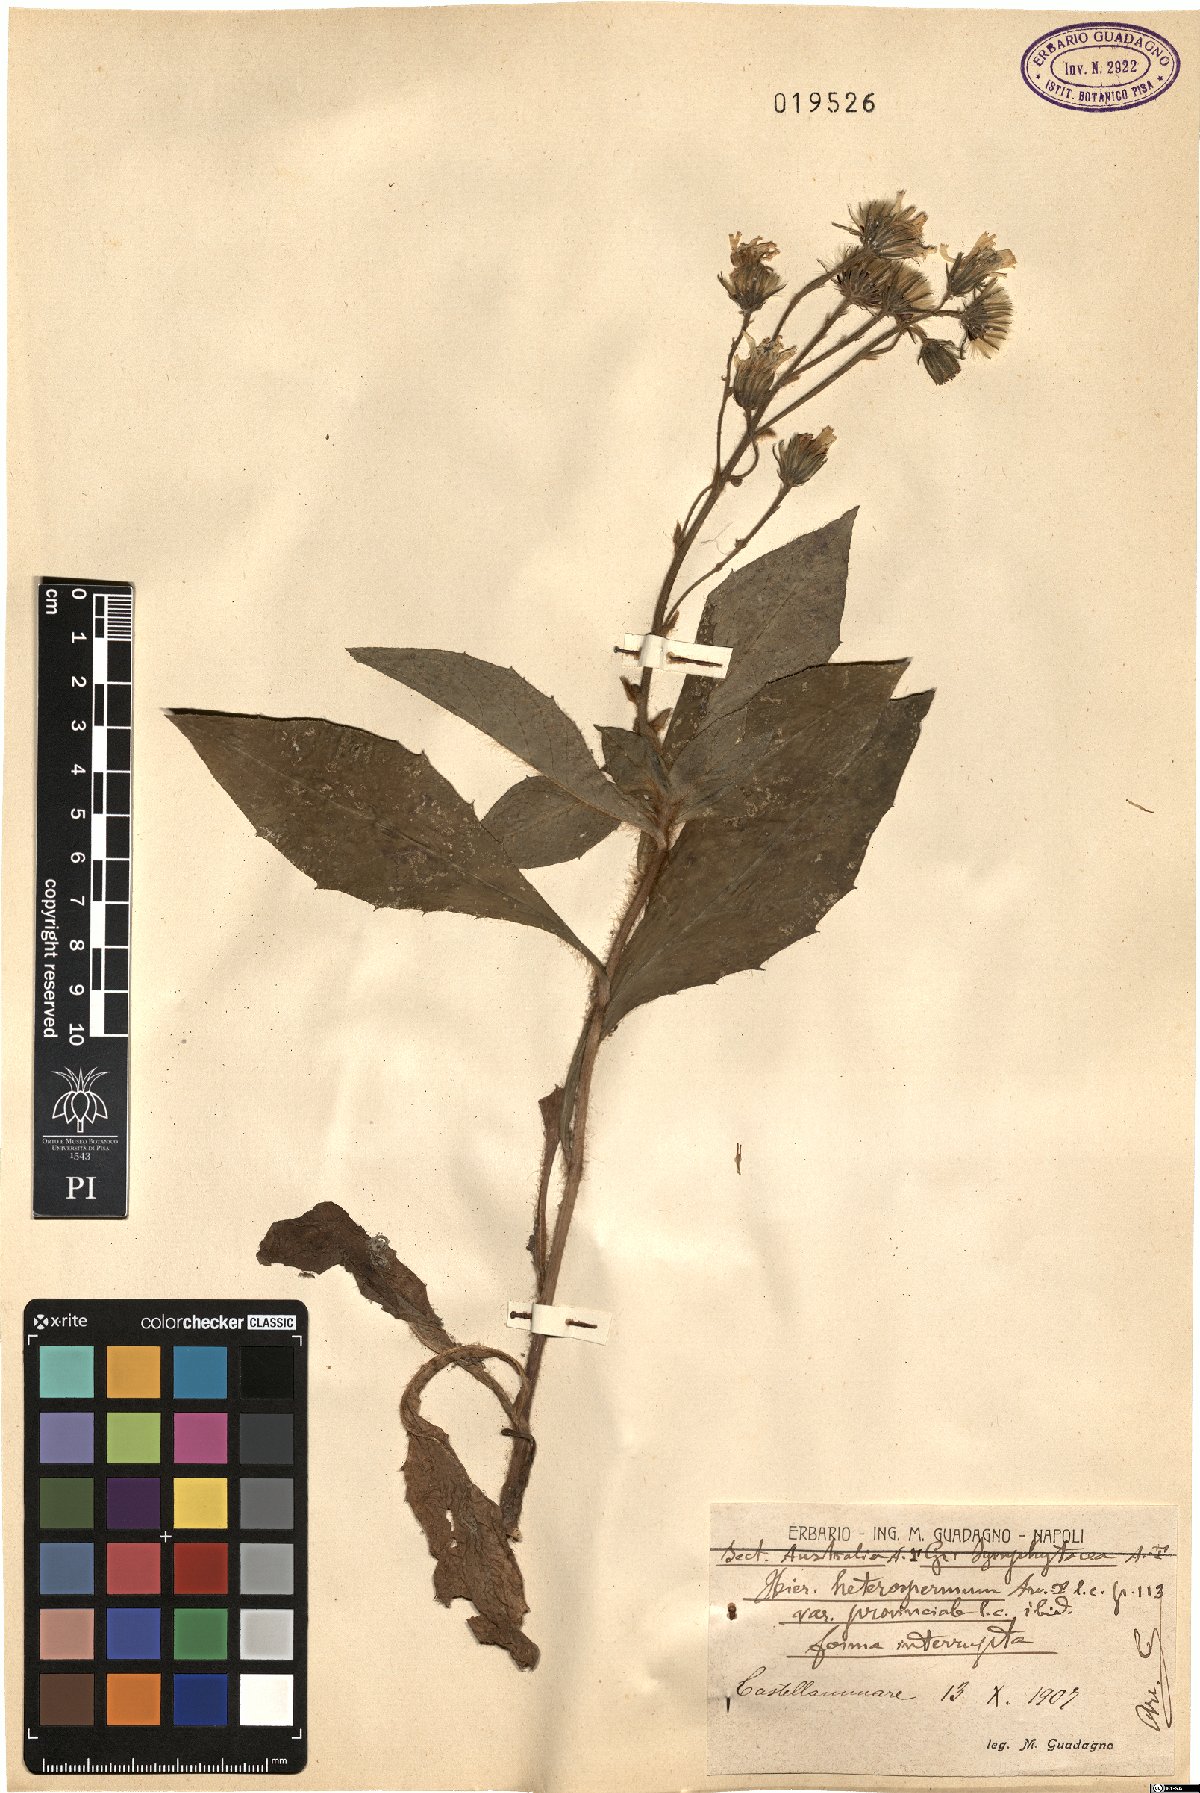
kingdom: Plantae
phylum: Tracheophyta
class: Magnoliopsida
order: Asterales
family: Asteraceae
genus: Hieracium
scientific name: Hieracium racemosum
